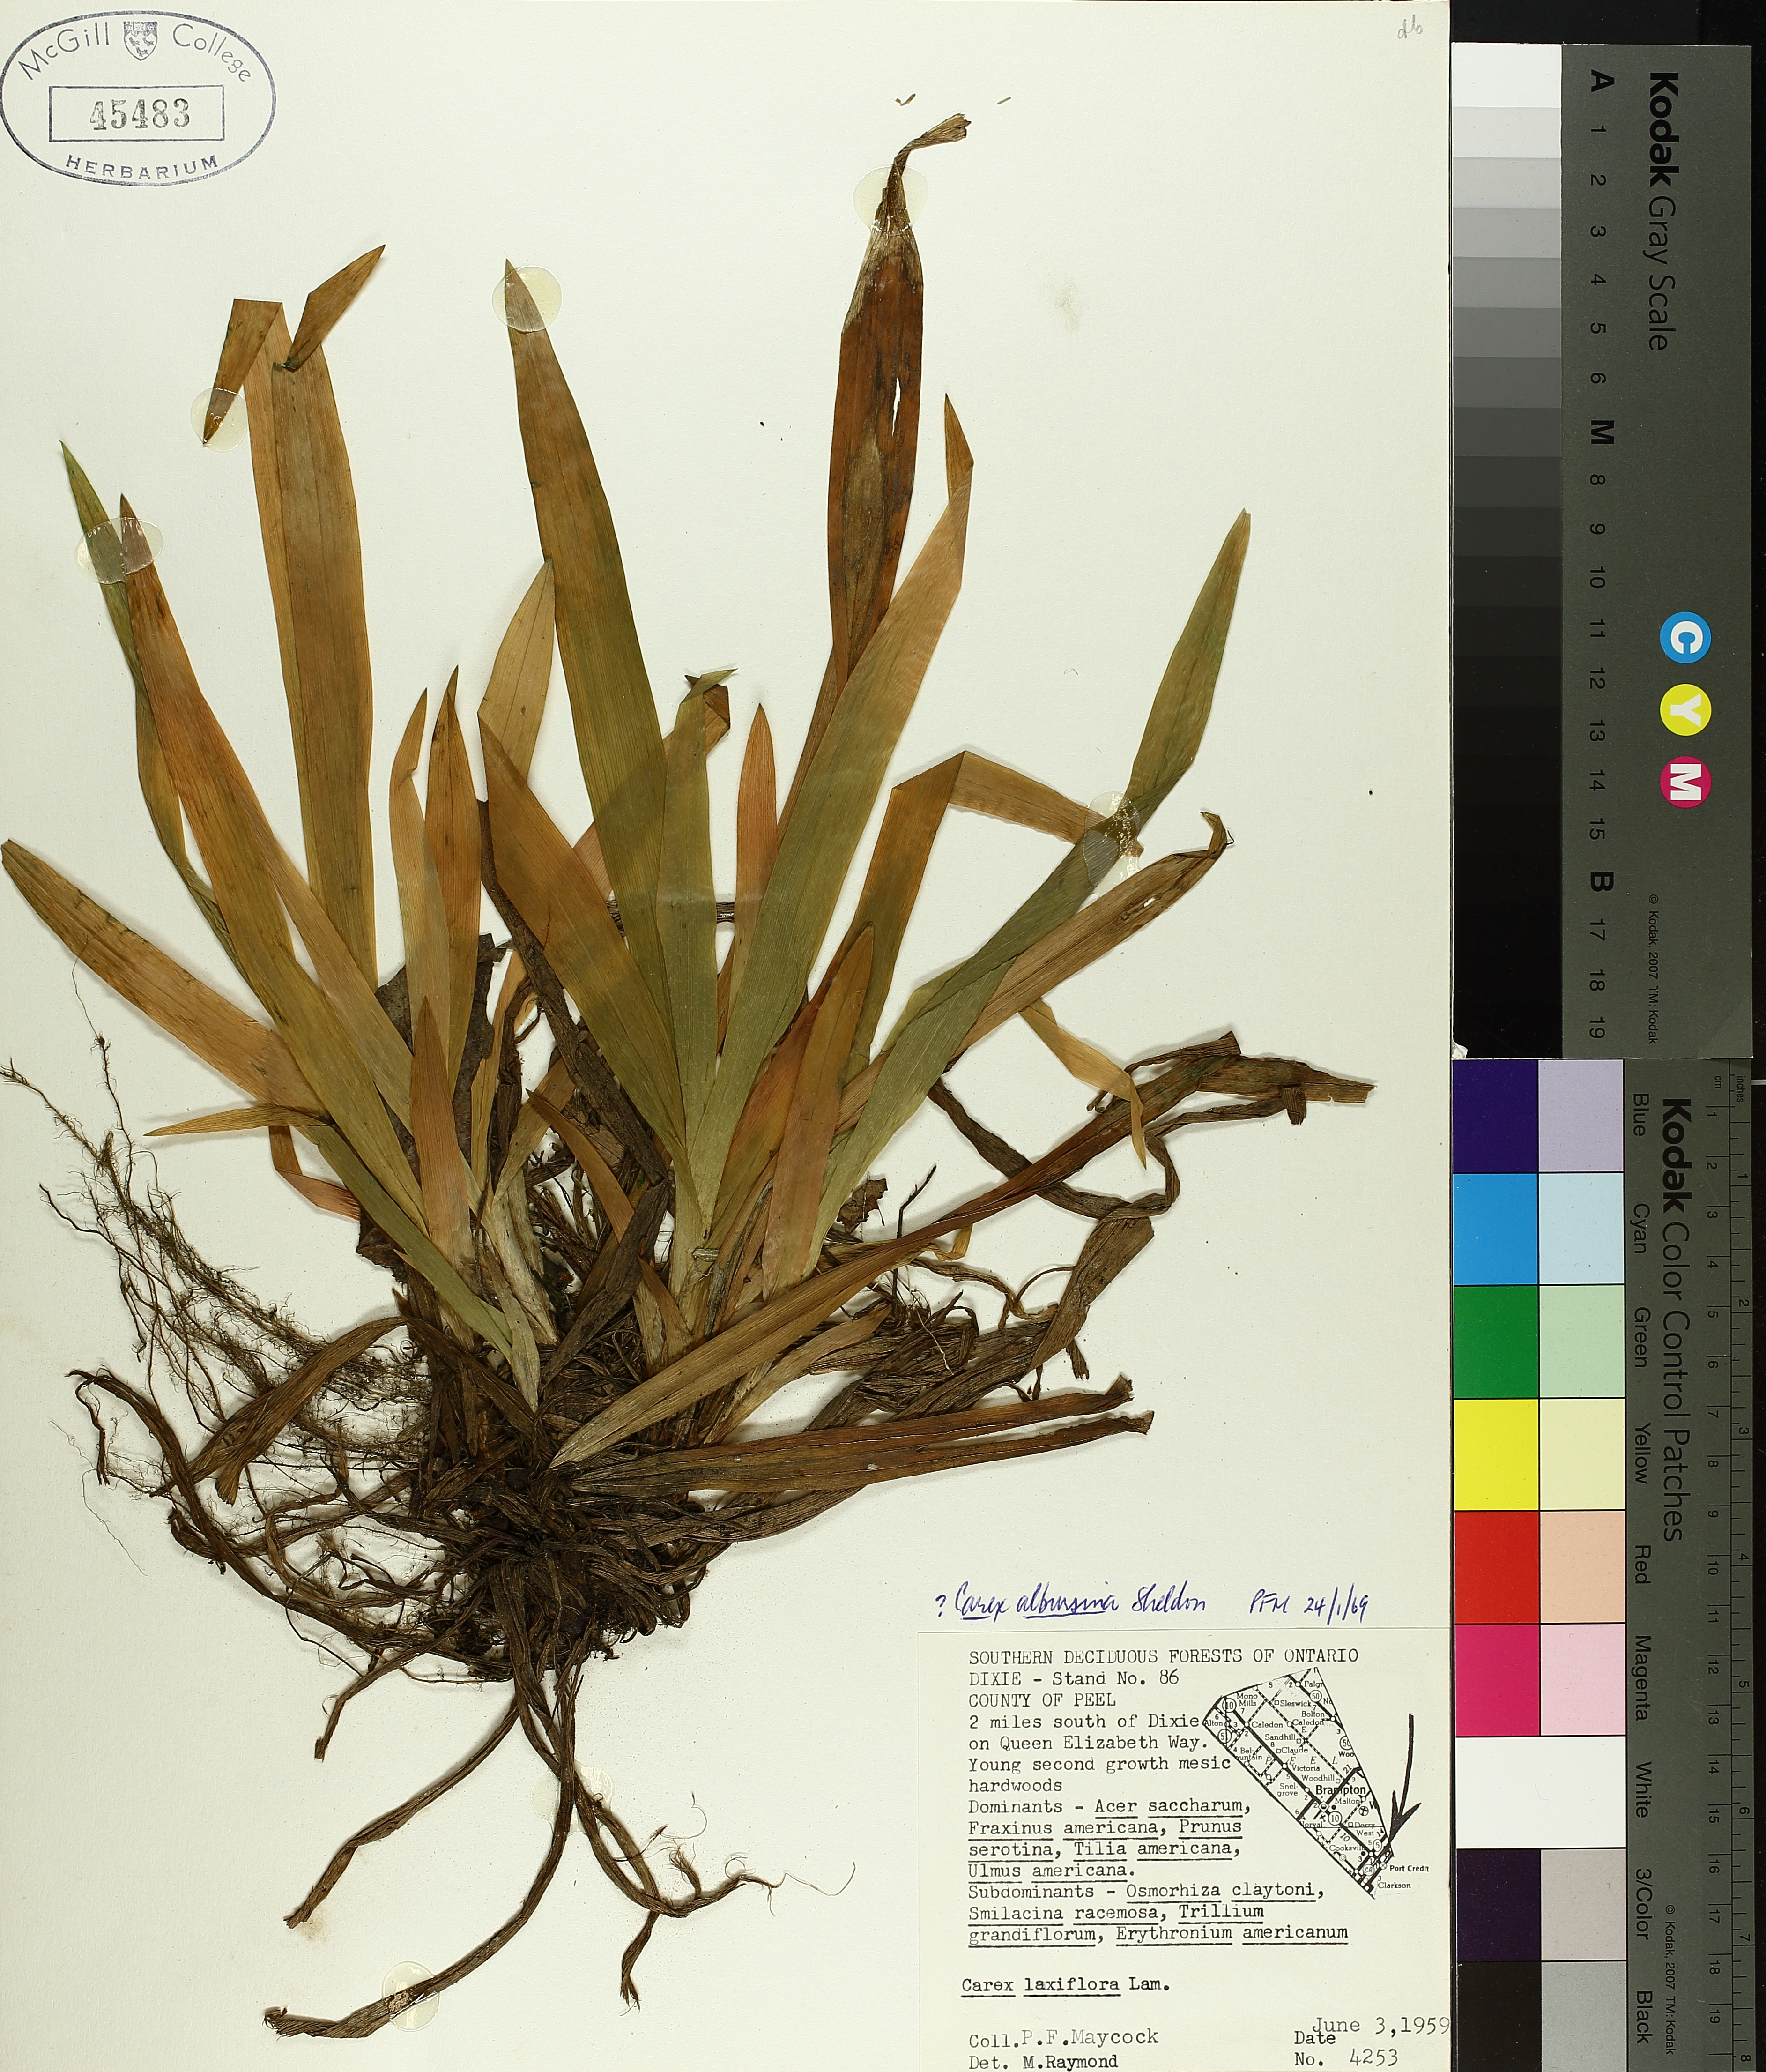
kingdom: Plantae
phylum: Tracheophyta
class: Liliopsida
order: Poales
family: Cyperaceae
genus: Carex
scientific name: Carex albursina
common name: Blunt-scale wood sedge
